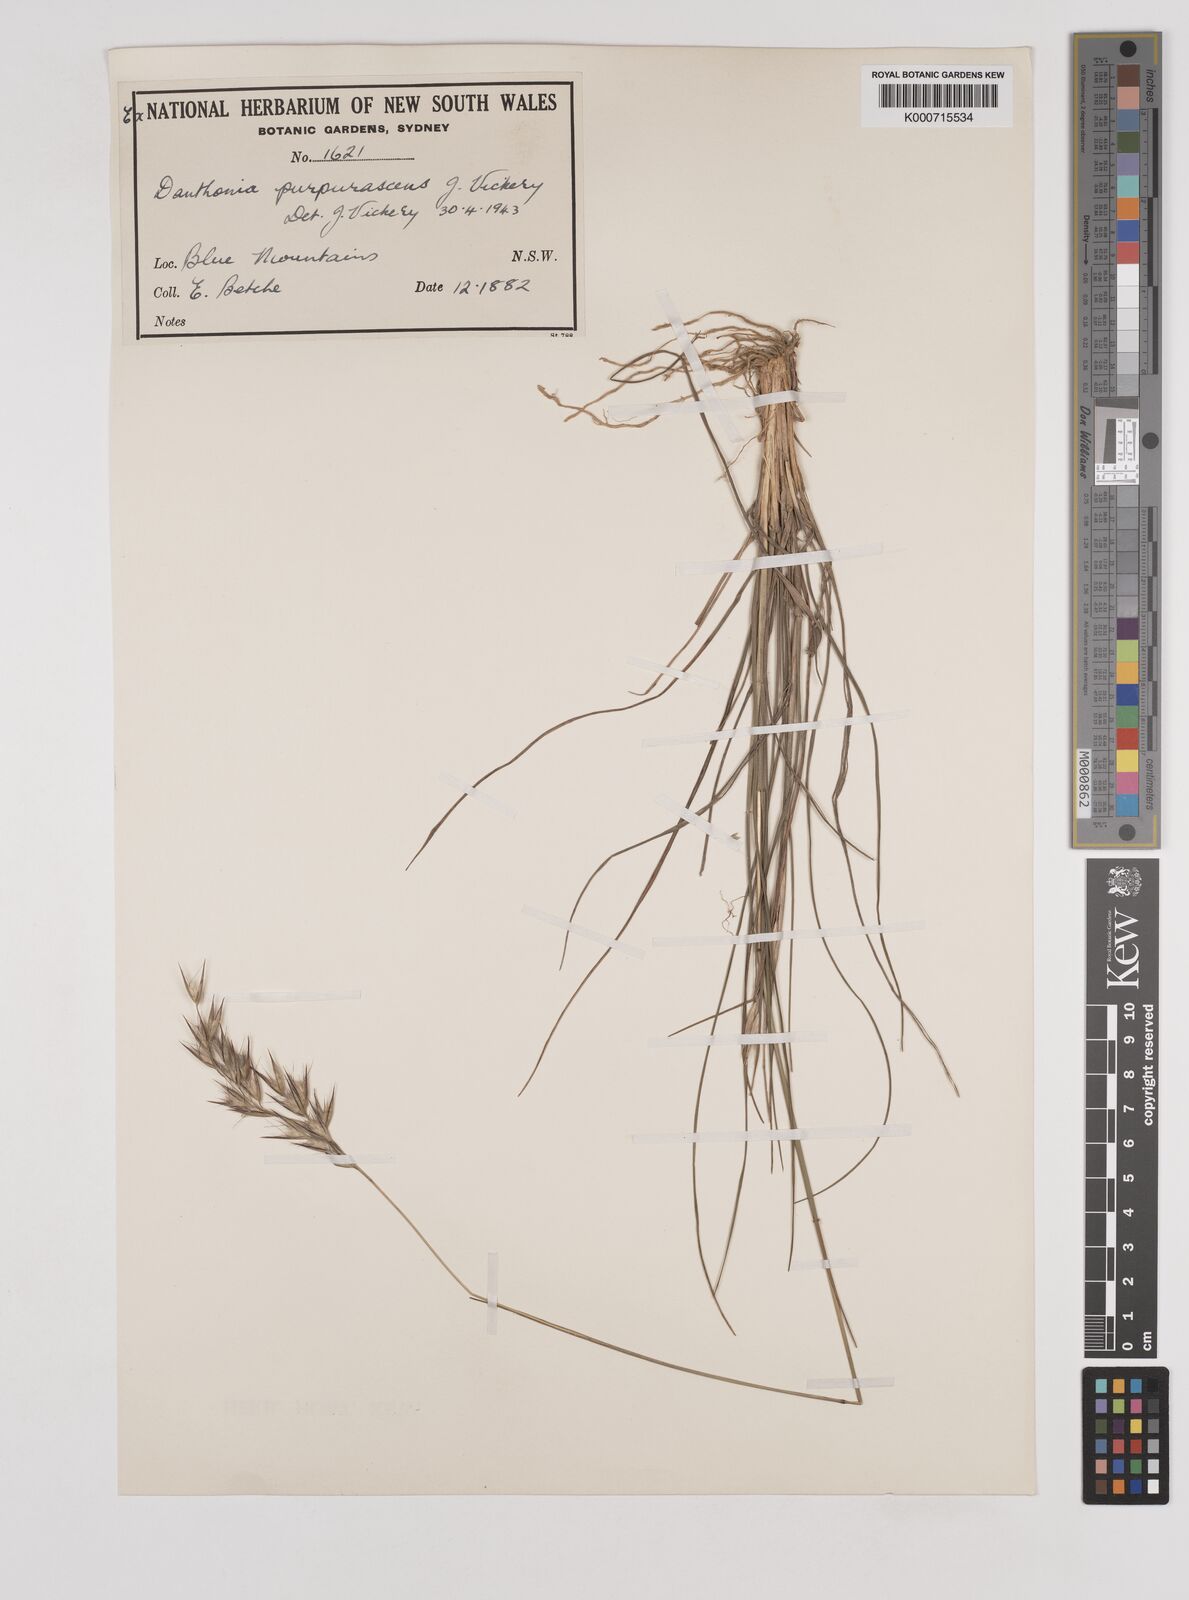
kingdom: Plantae
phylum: Tracheophyta
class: Liliopsida
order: Poales
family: Poaceae
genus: Rytidosperma
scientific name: Rytidosperma tenuius
